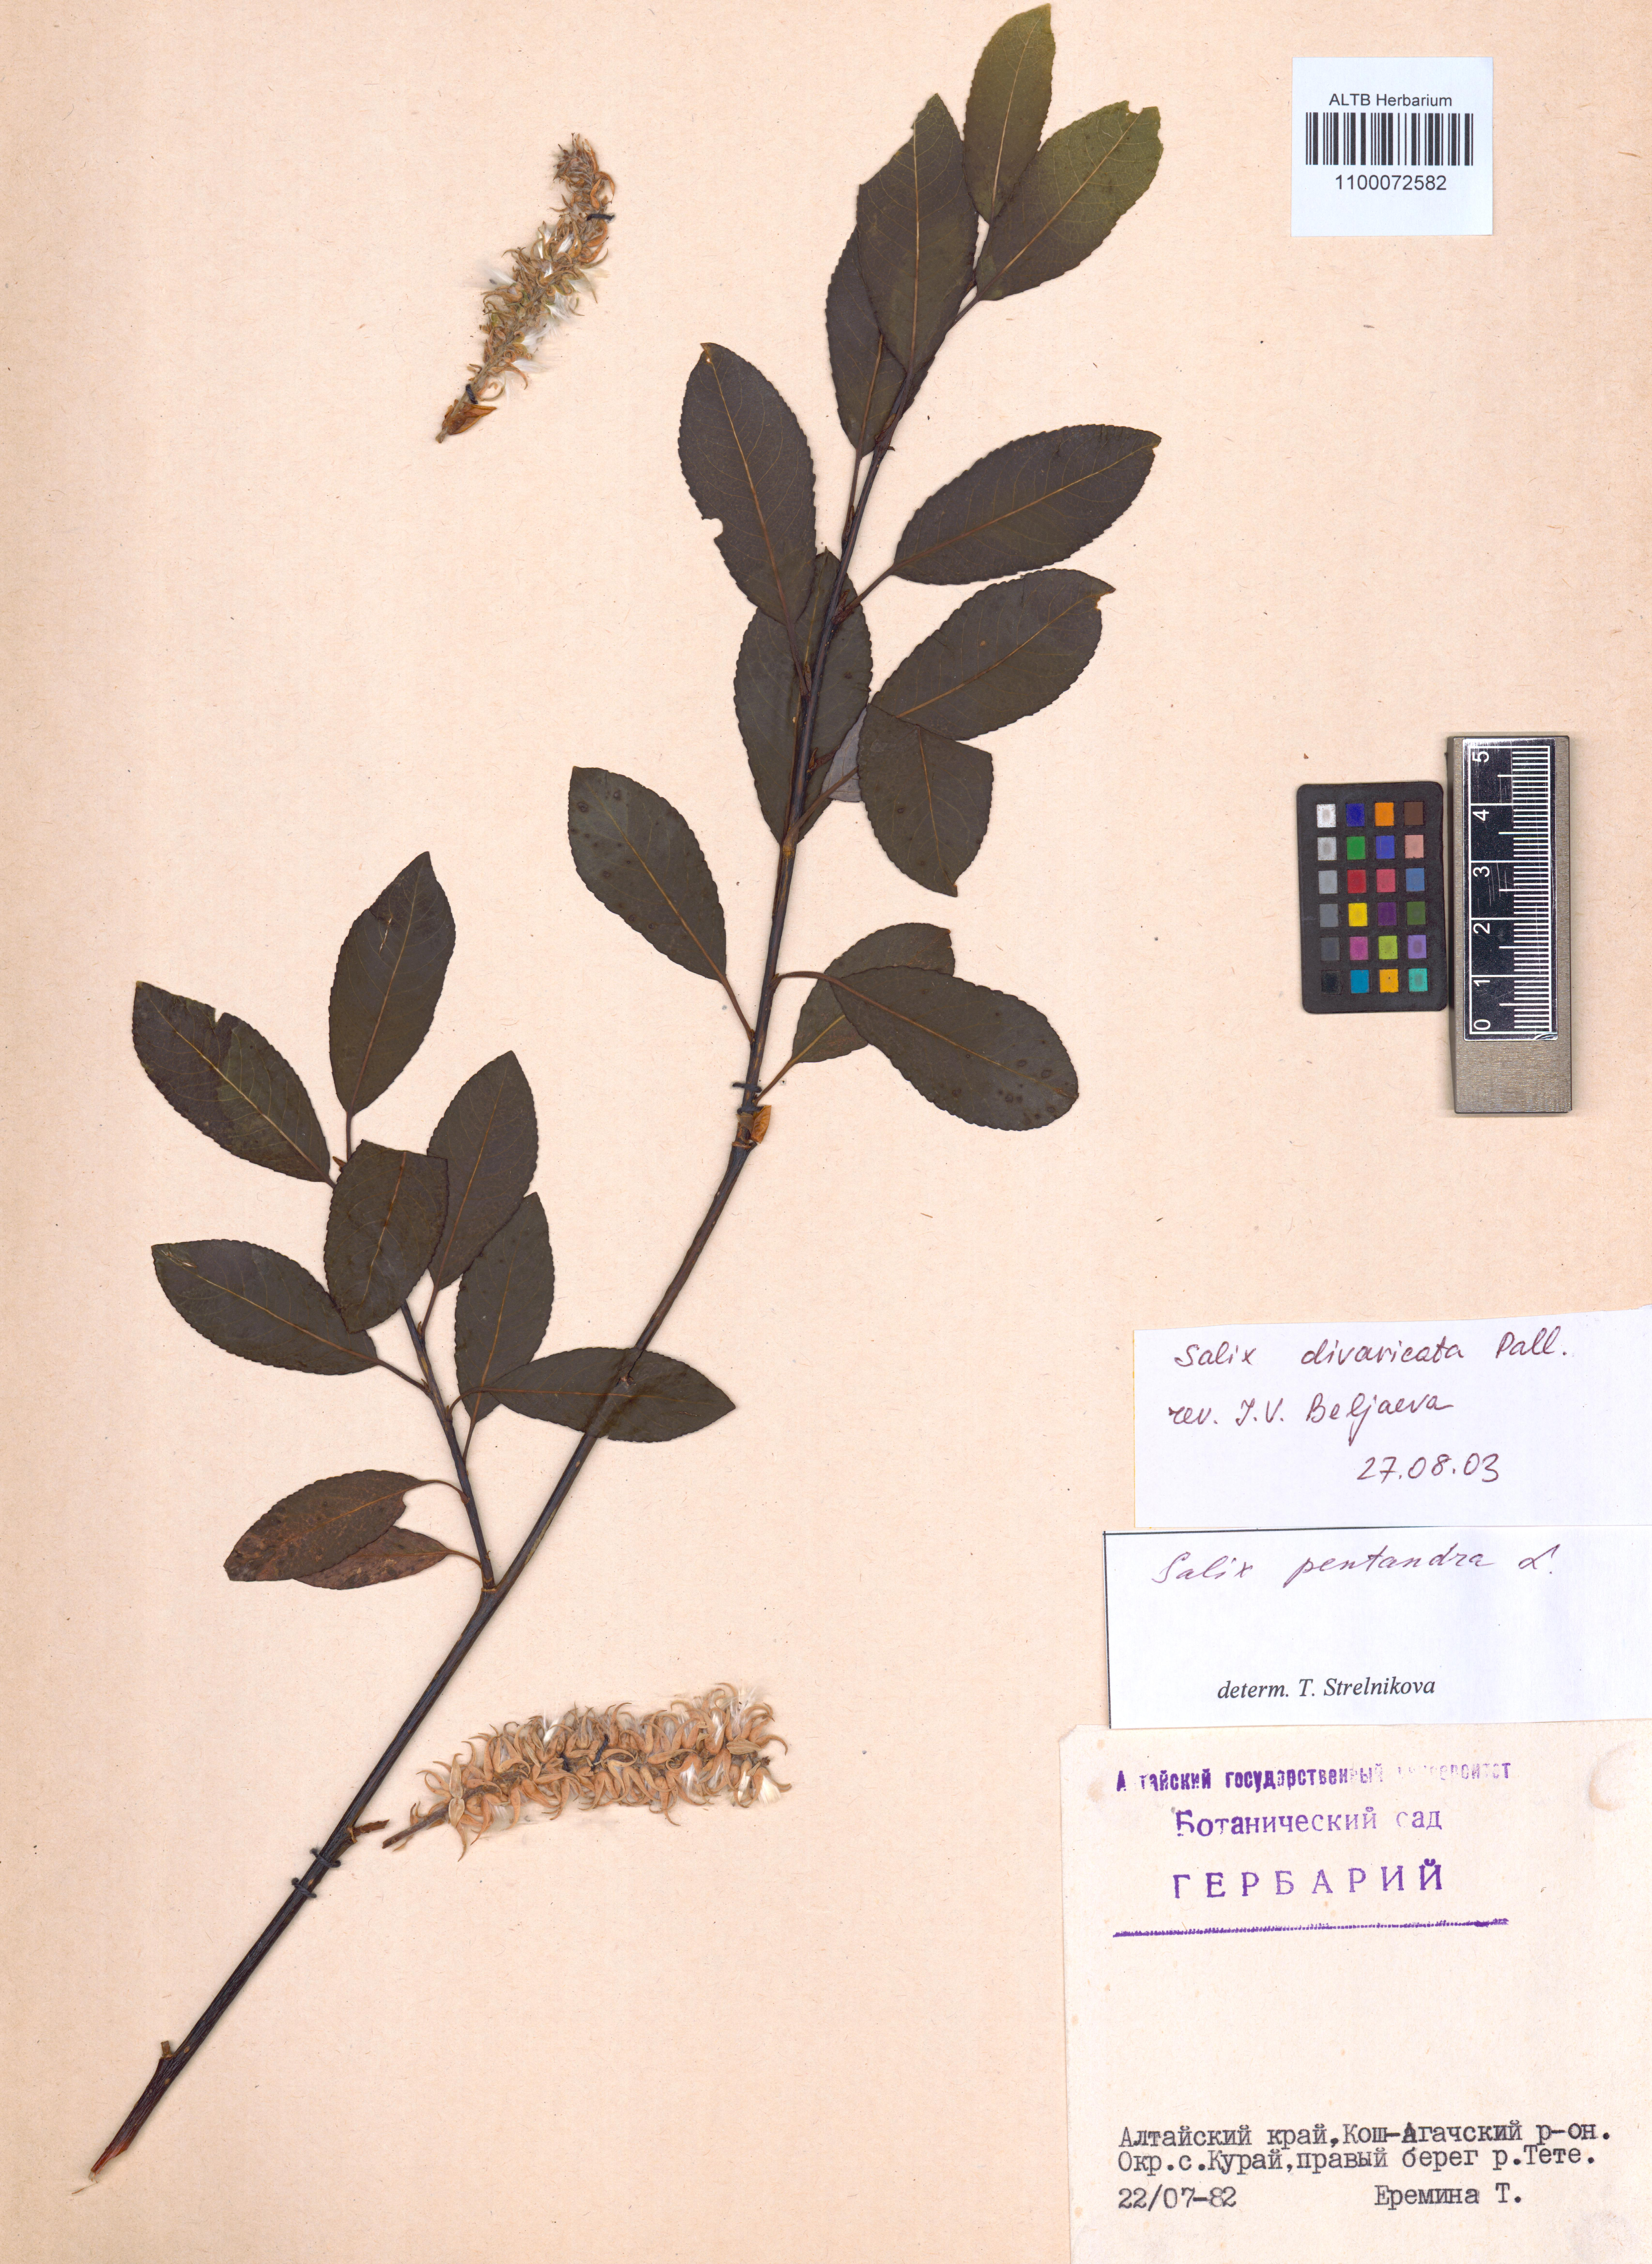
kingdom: Plantae
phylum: Tracheophyta
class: Magnoliopsida
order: Malpighiales
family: Salicaceae
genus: Salix
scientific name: Salix divaricata
